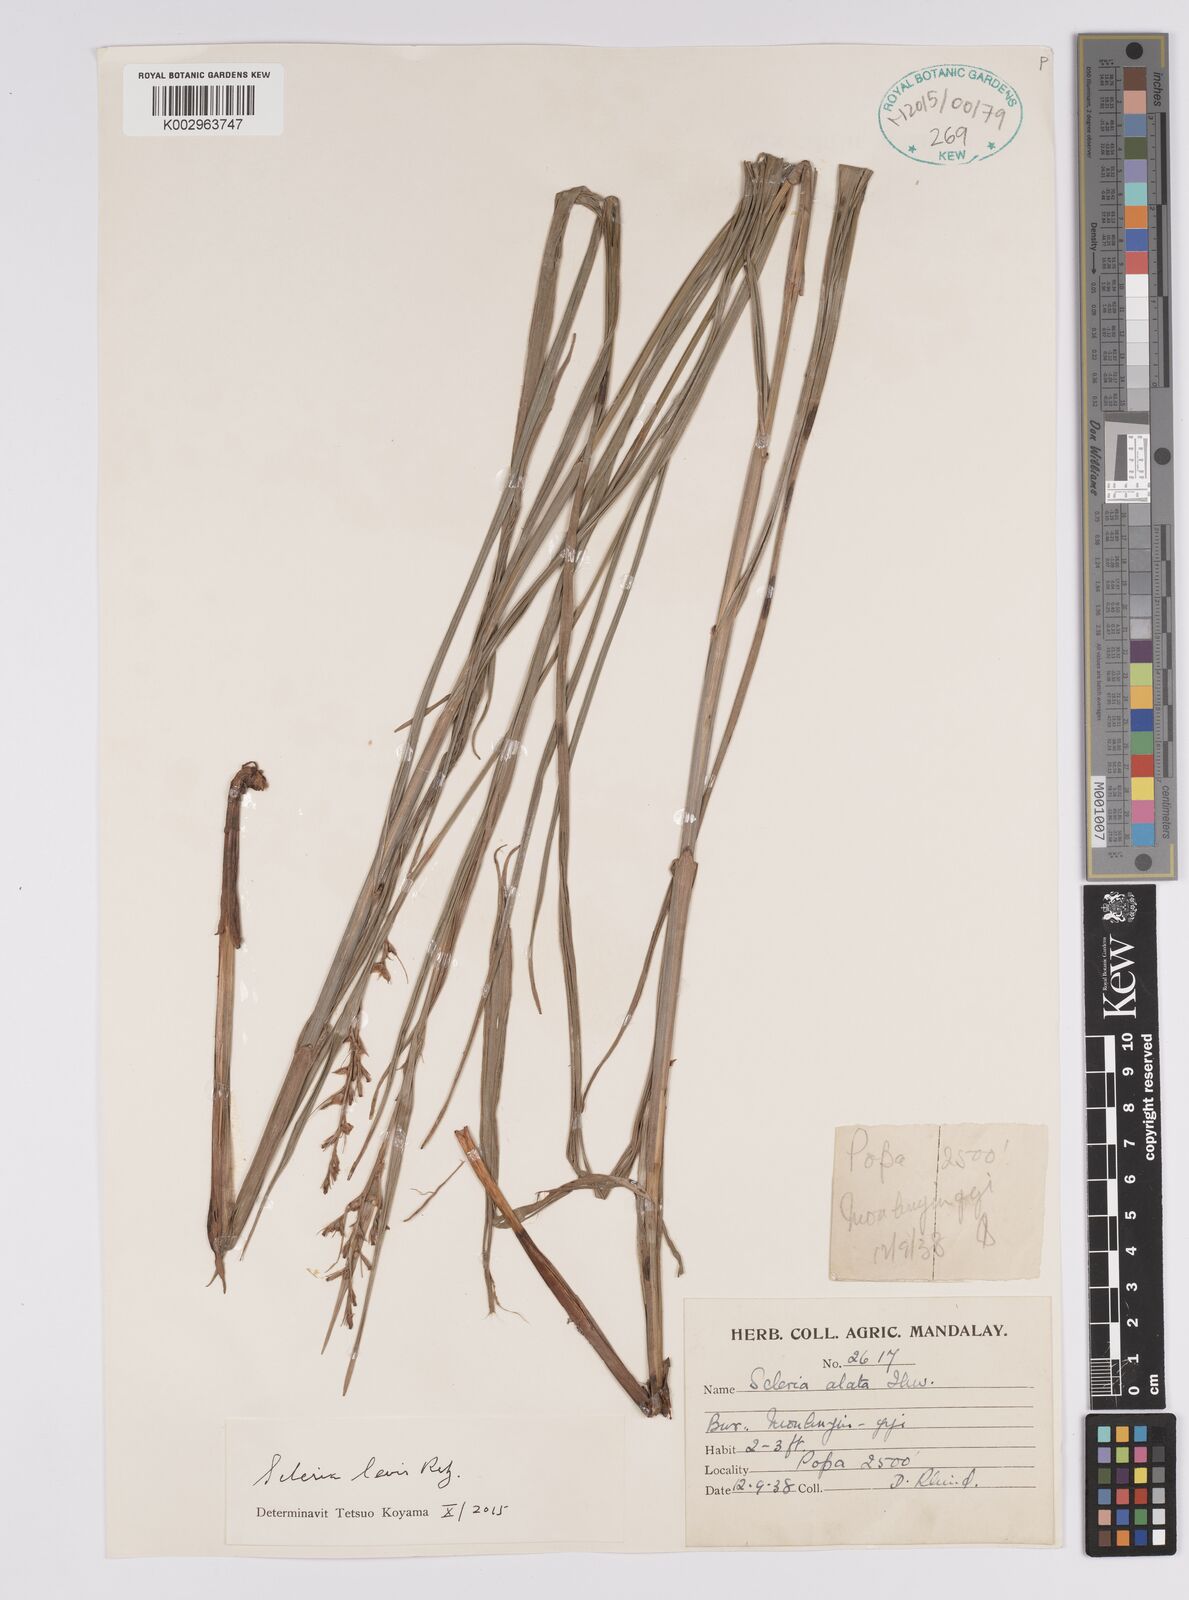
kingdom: Plantae
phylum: Tracheophyta
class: Liliopsida
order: Poales
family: Cyperaceae
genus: Scleria
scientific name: Scleria levis
